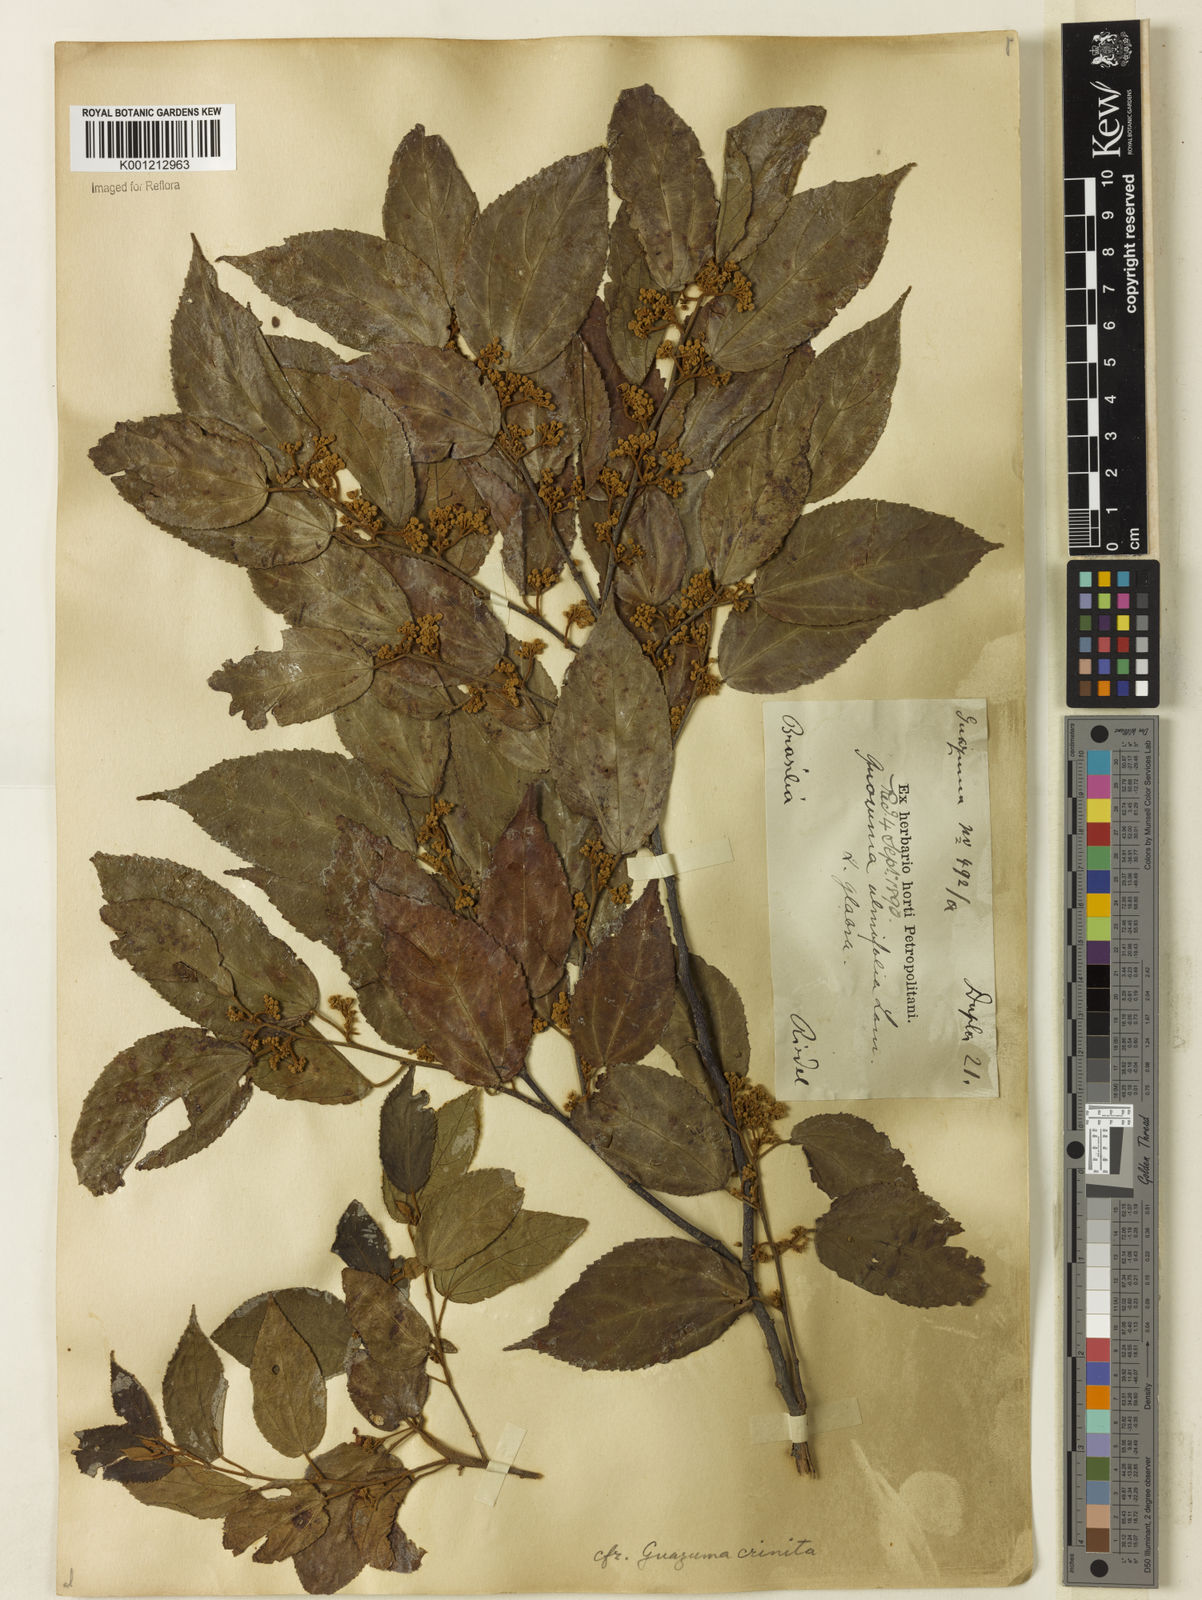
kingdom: Plantae
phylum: Tracheophyta
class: Magnoliopsida
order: Malvales
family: Malvaceae
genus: Guazuma
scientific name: Guazuma crinita
